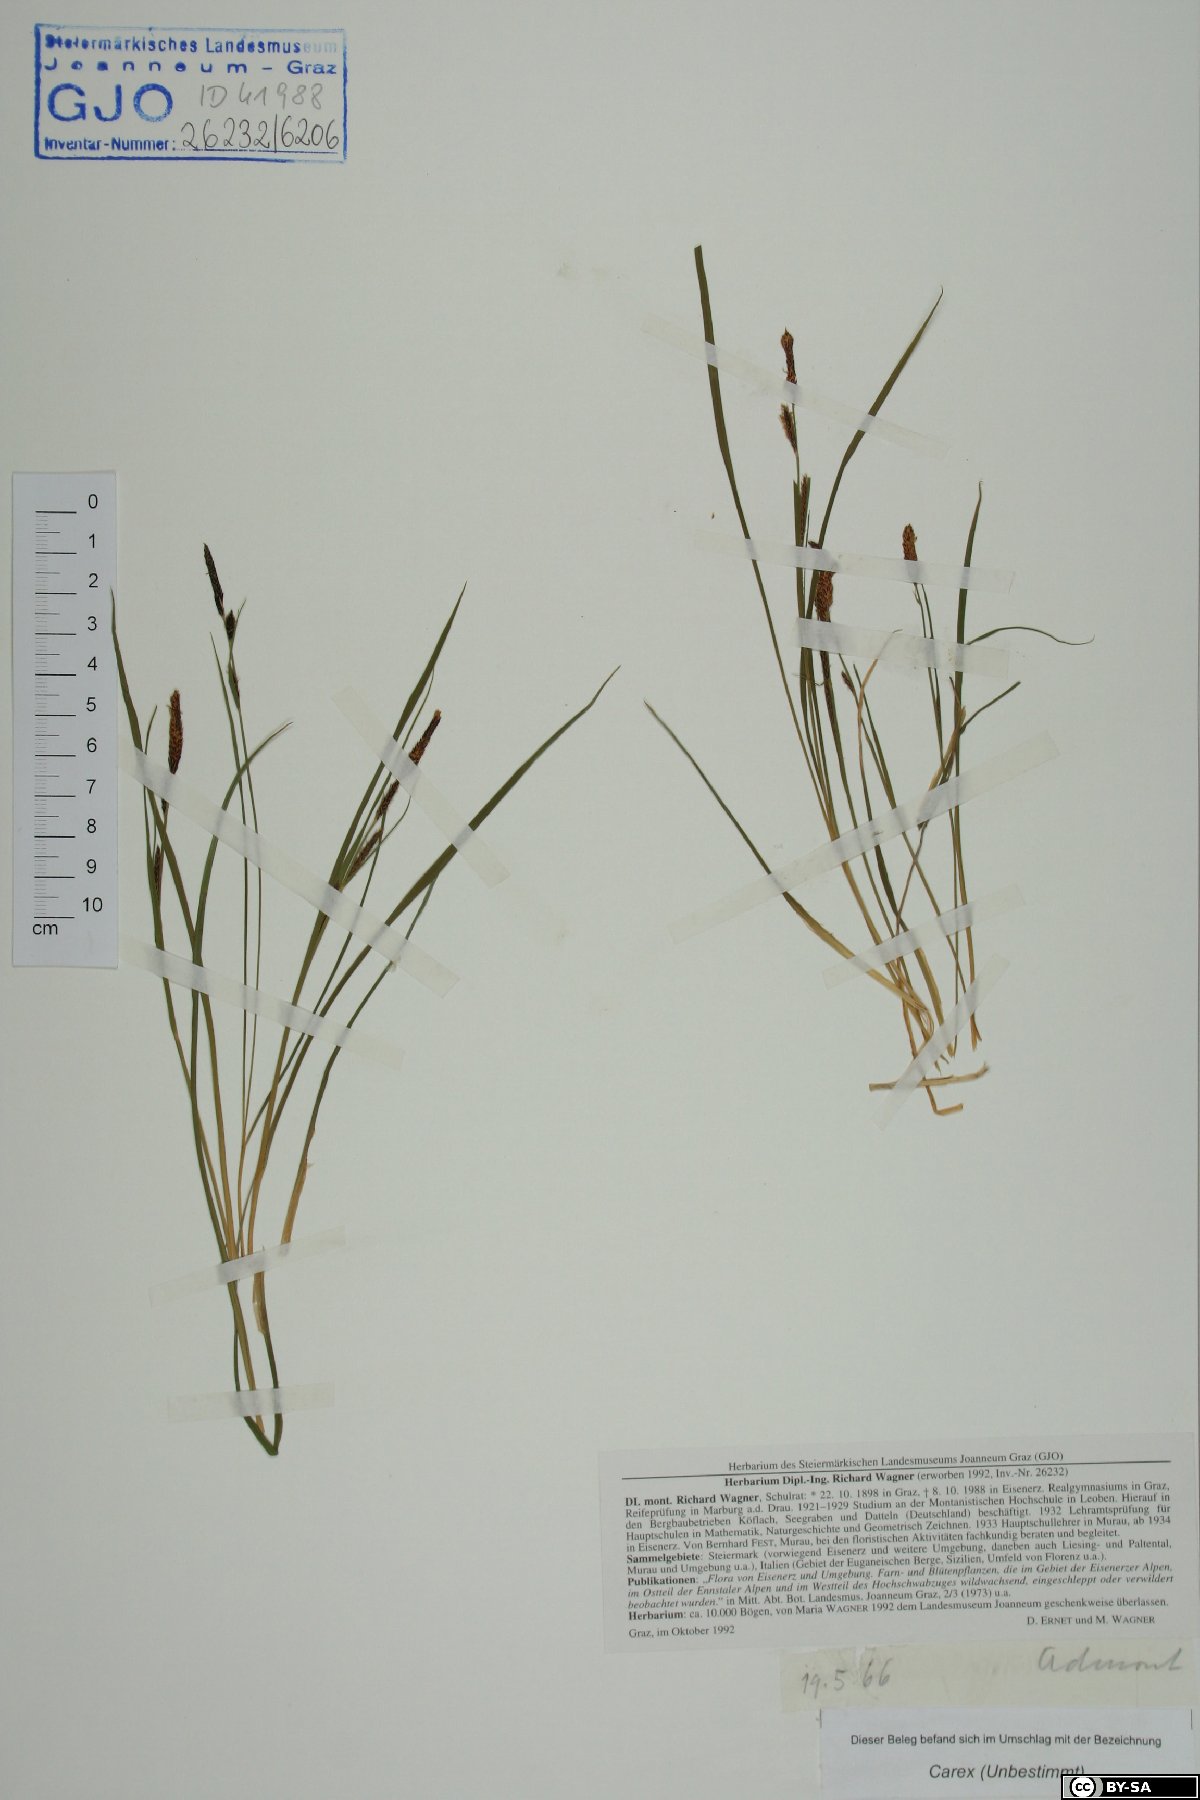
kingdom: Plantae
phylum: Tracheophyta
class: Liliopsida
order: Poales
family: Cyperaceae
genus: Carex
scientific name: Carex
